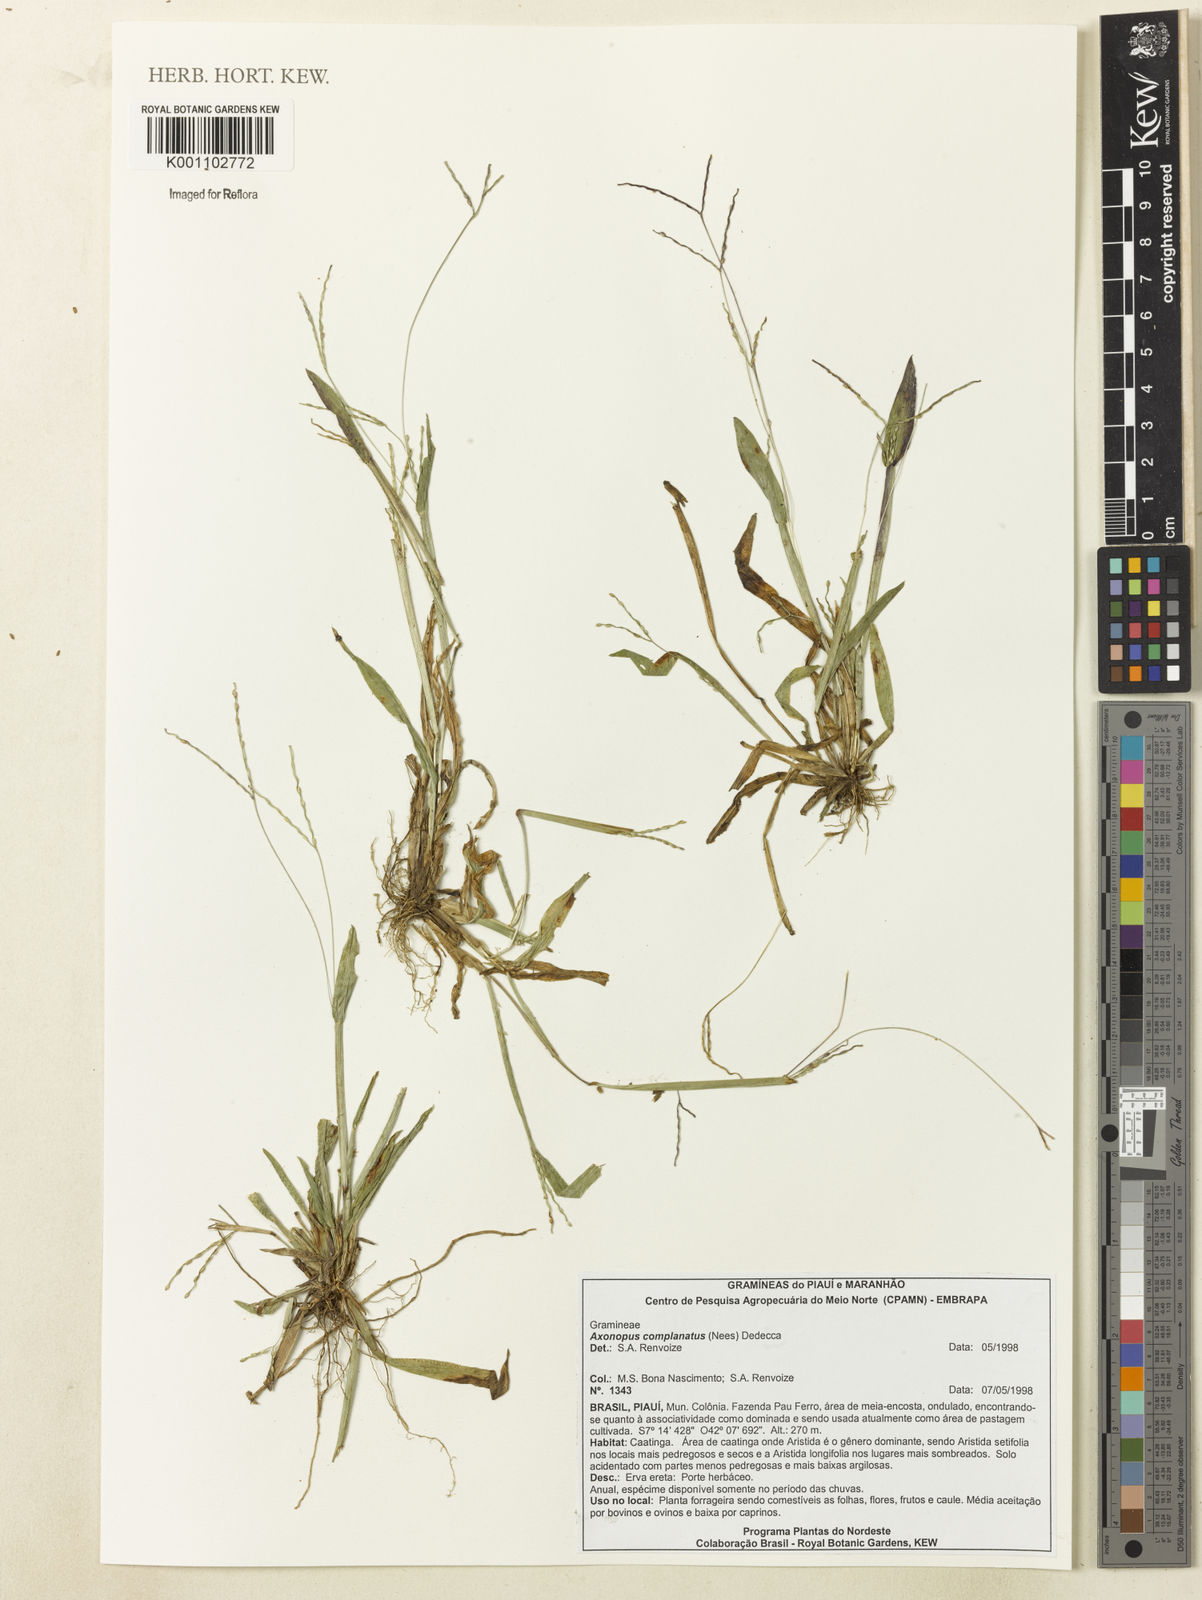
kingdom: Plantae
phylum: Tracheophyta
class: Liliopsida
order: Poales
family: Poaceae
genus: Axonopus
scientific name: Axonopus complanatus
